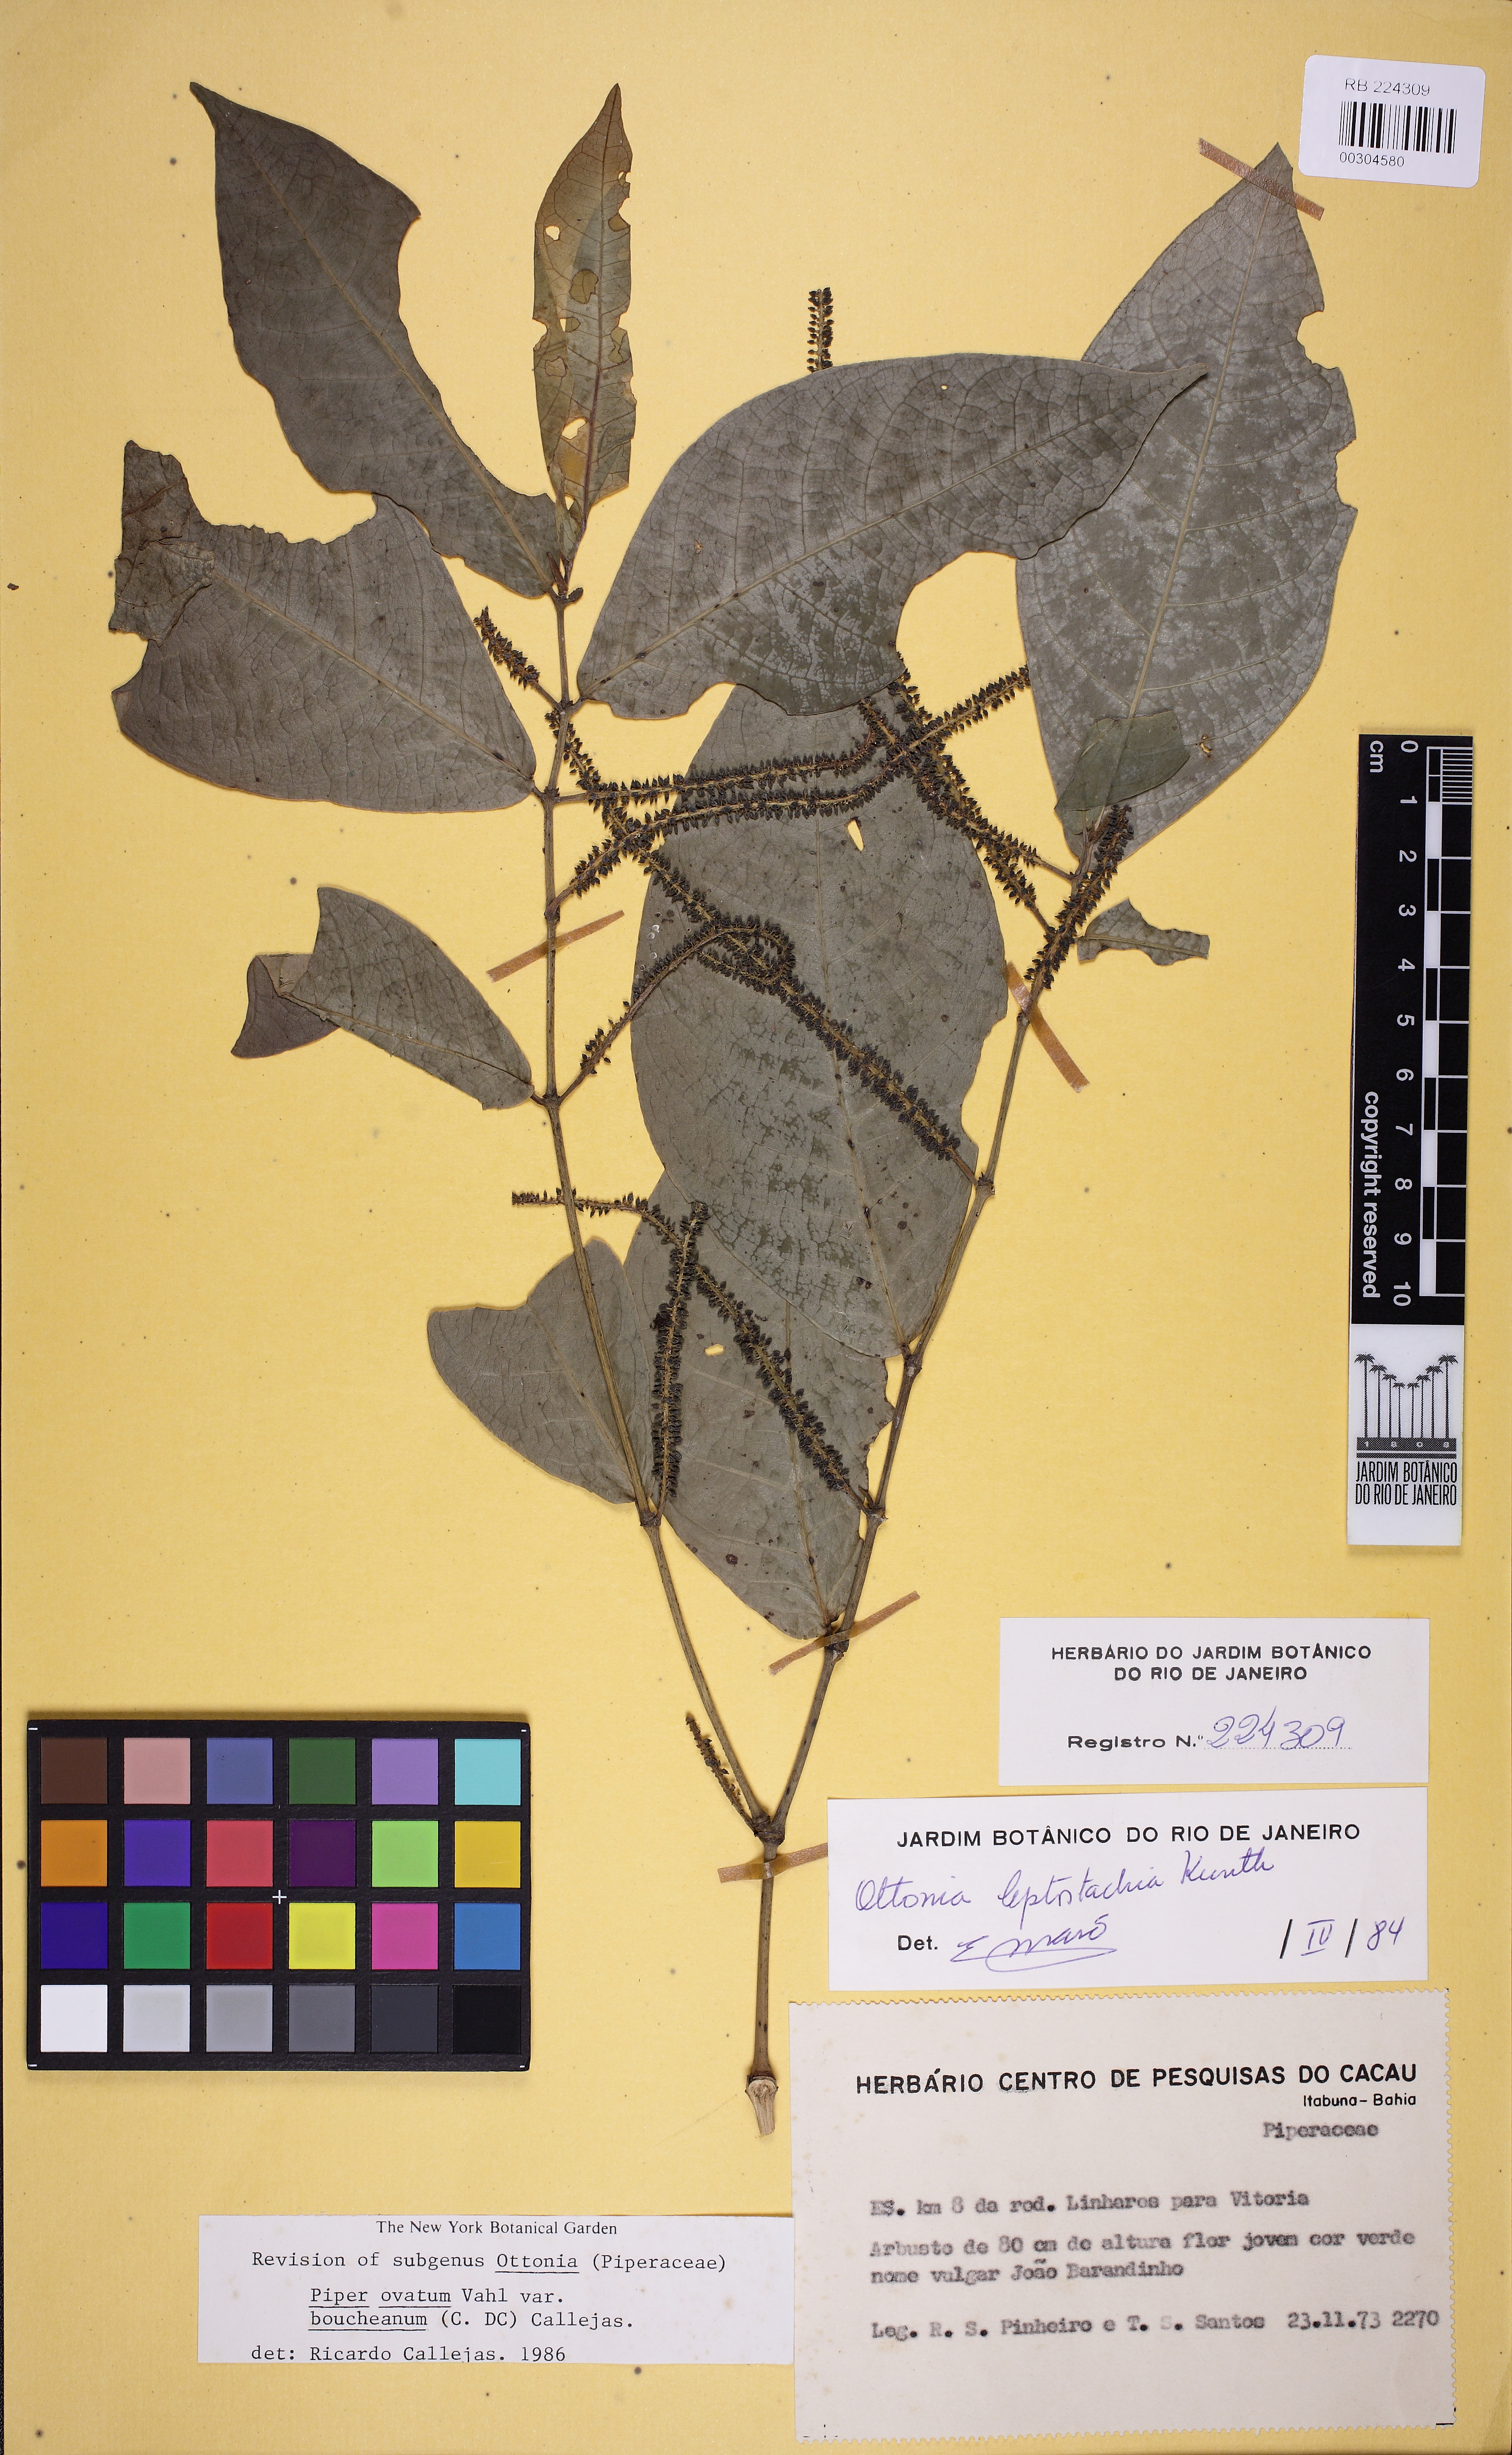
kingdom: Plantae
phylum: Tracheophyta
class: Magnoliopsida
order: Piperales
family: Piperaceae
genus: Piper
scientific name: Piper ovatum
